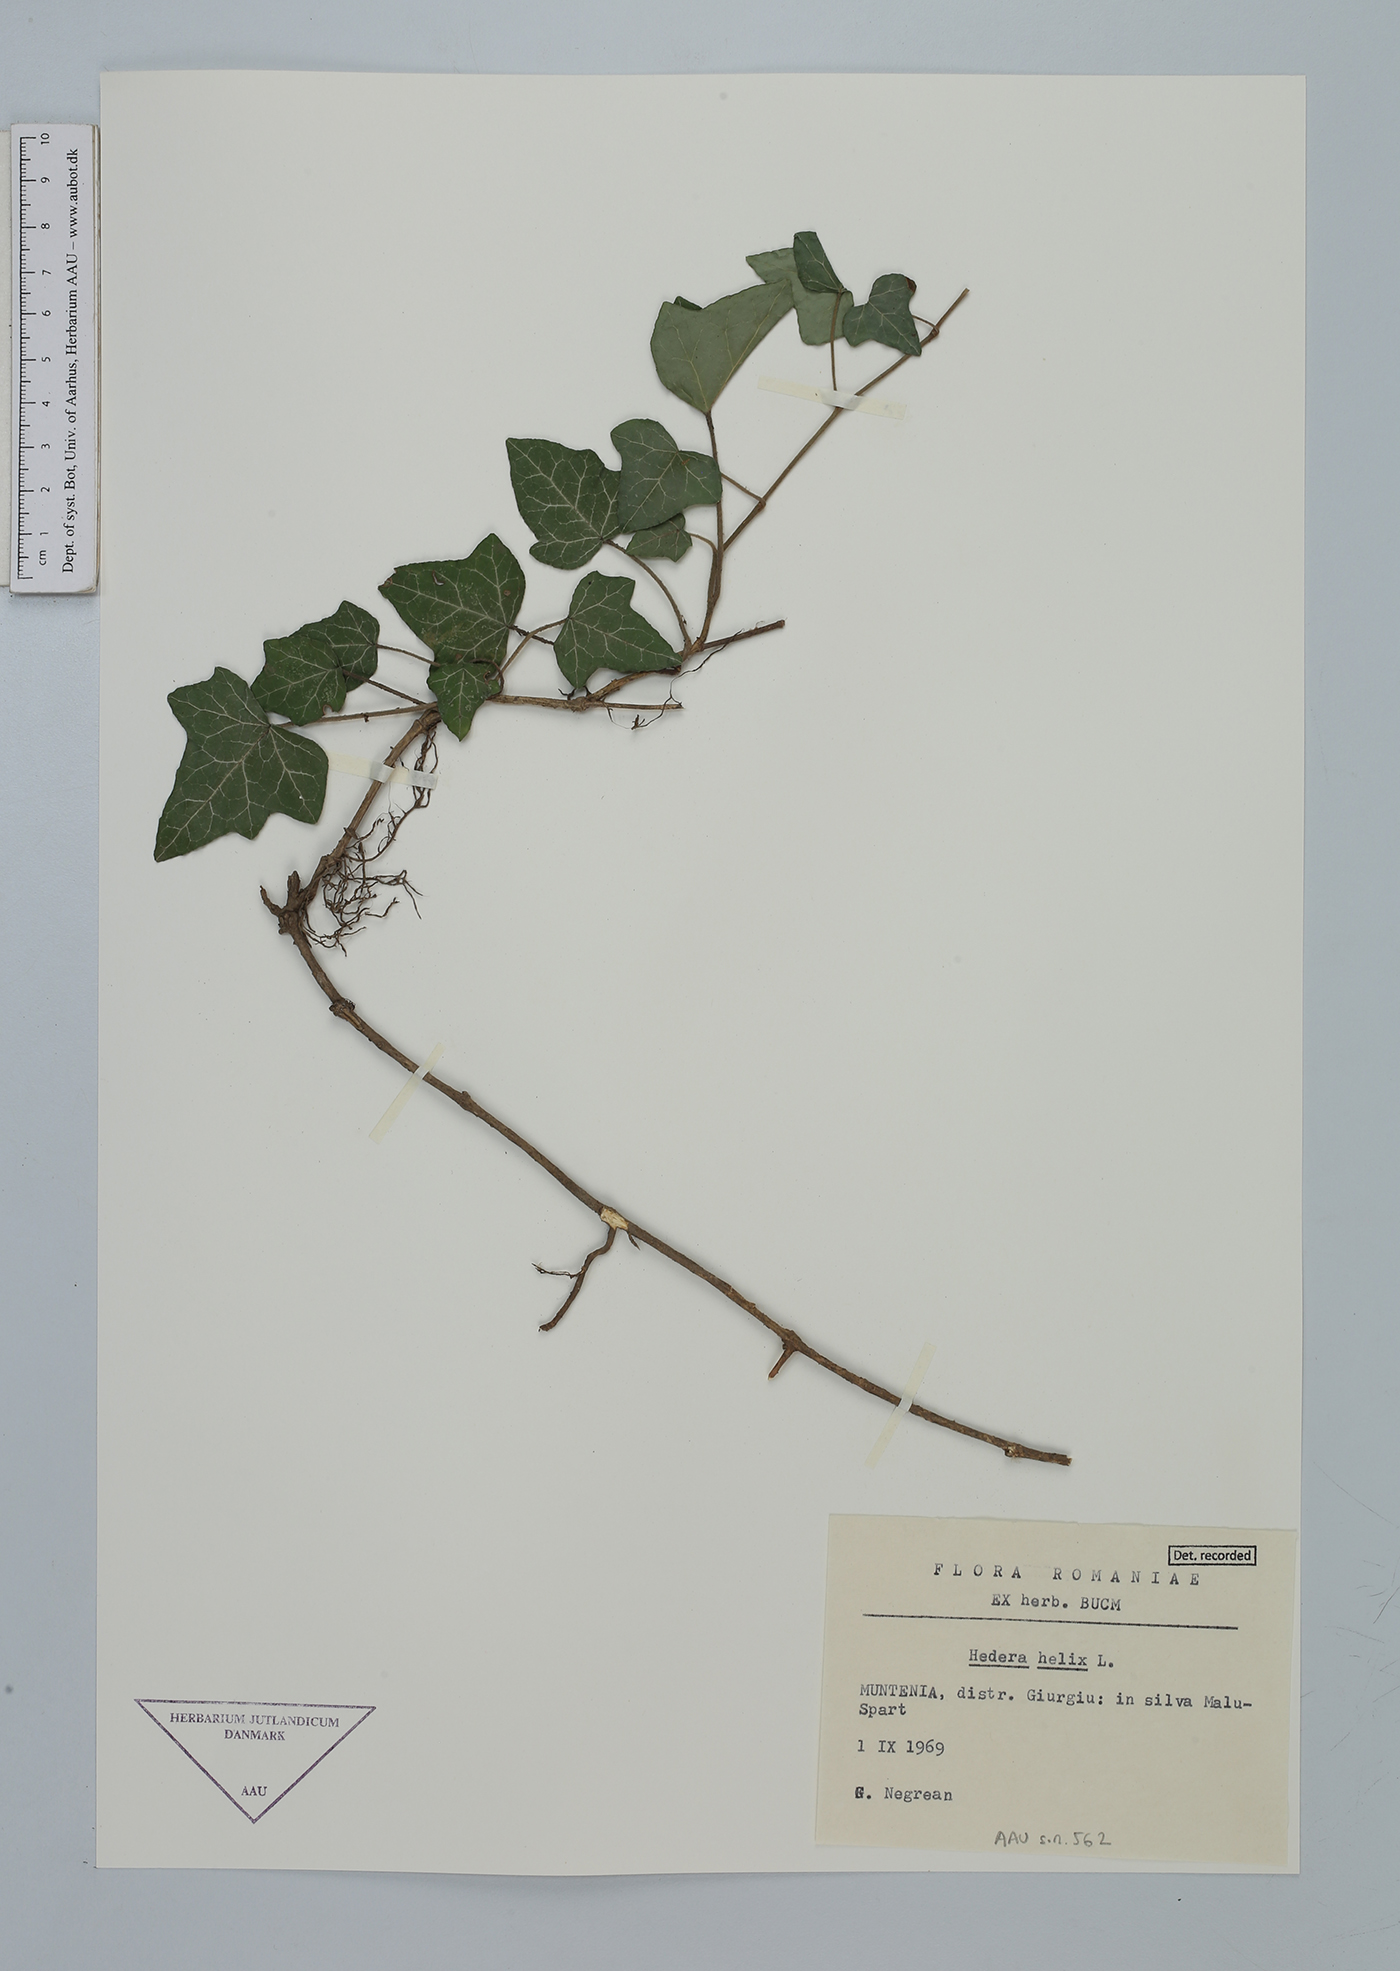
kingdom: Plantae
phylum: Tracheophyta
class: Magnoliopsida
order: Apiales
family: Araliaceae
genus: Hedera
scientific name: Hedera helix
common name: Ivy
